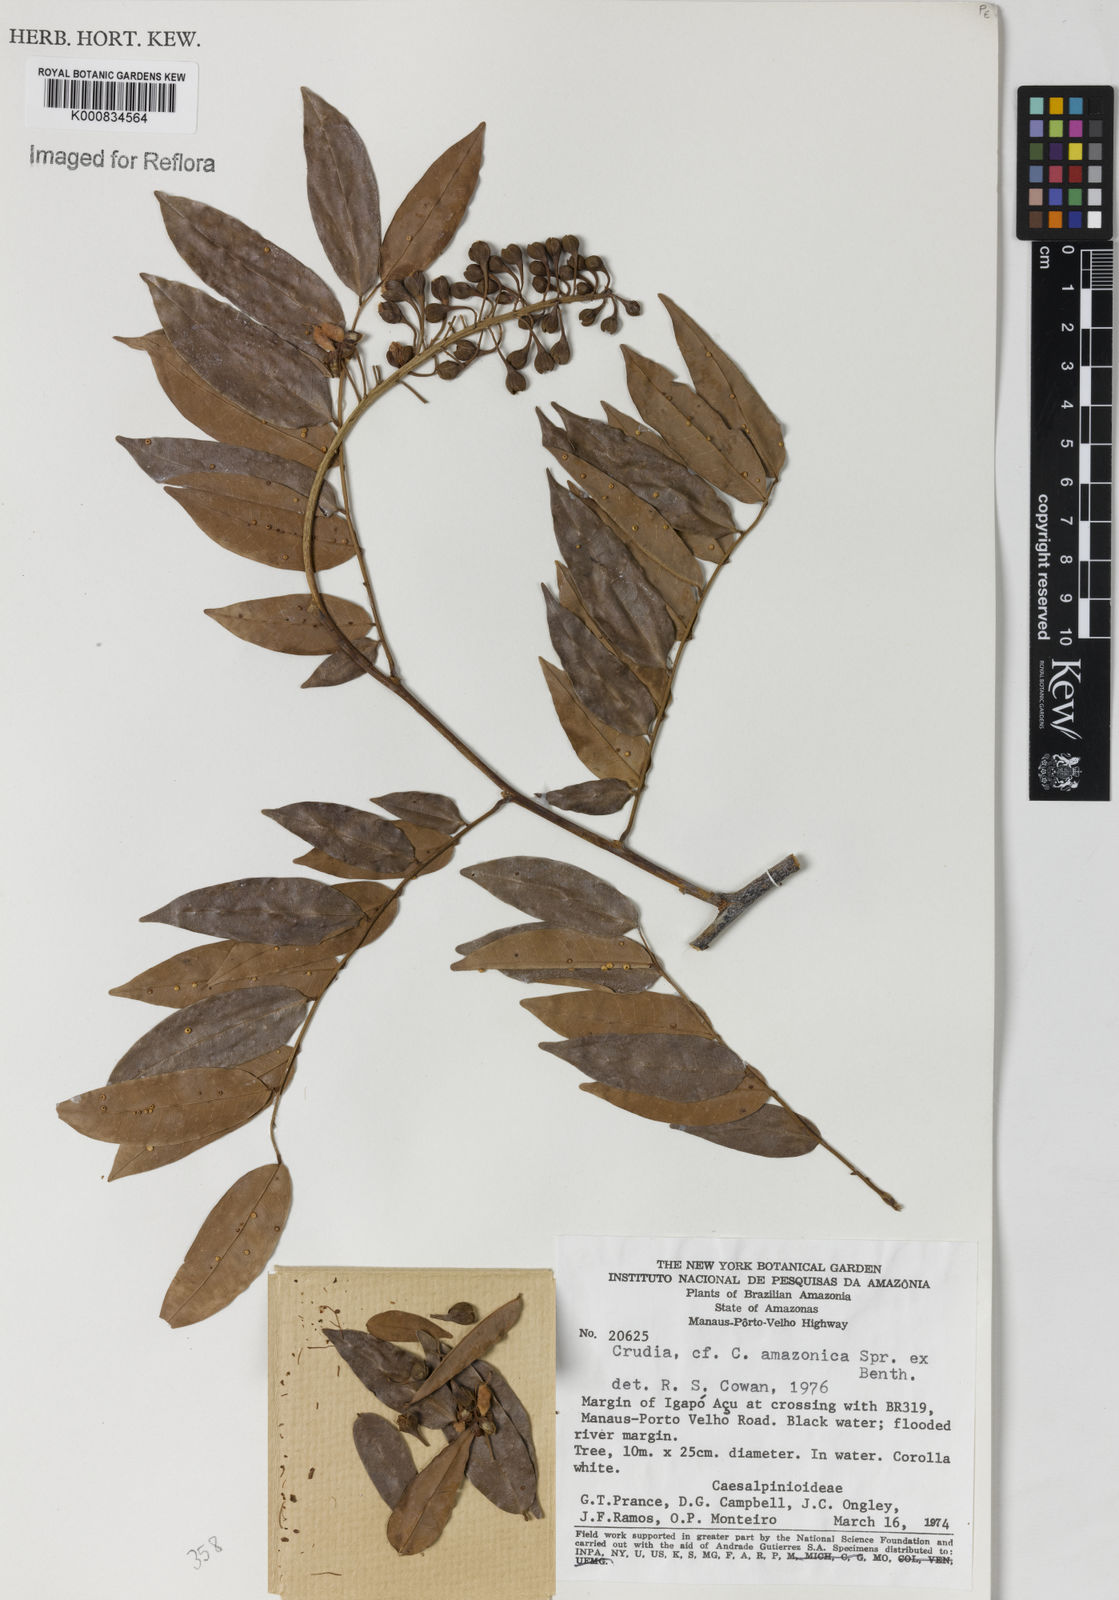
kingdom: Plantae
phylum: Tracheophyta
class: Magnoliopsida
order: Fabales
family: Fabaceae
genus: Crudia
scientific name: Crudia
